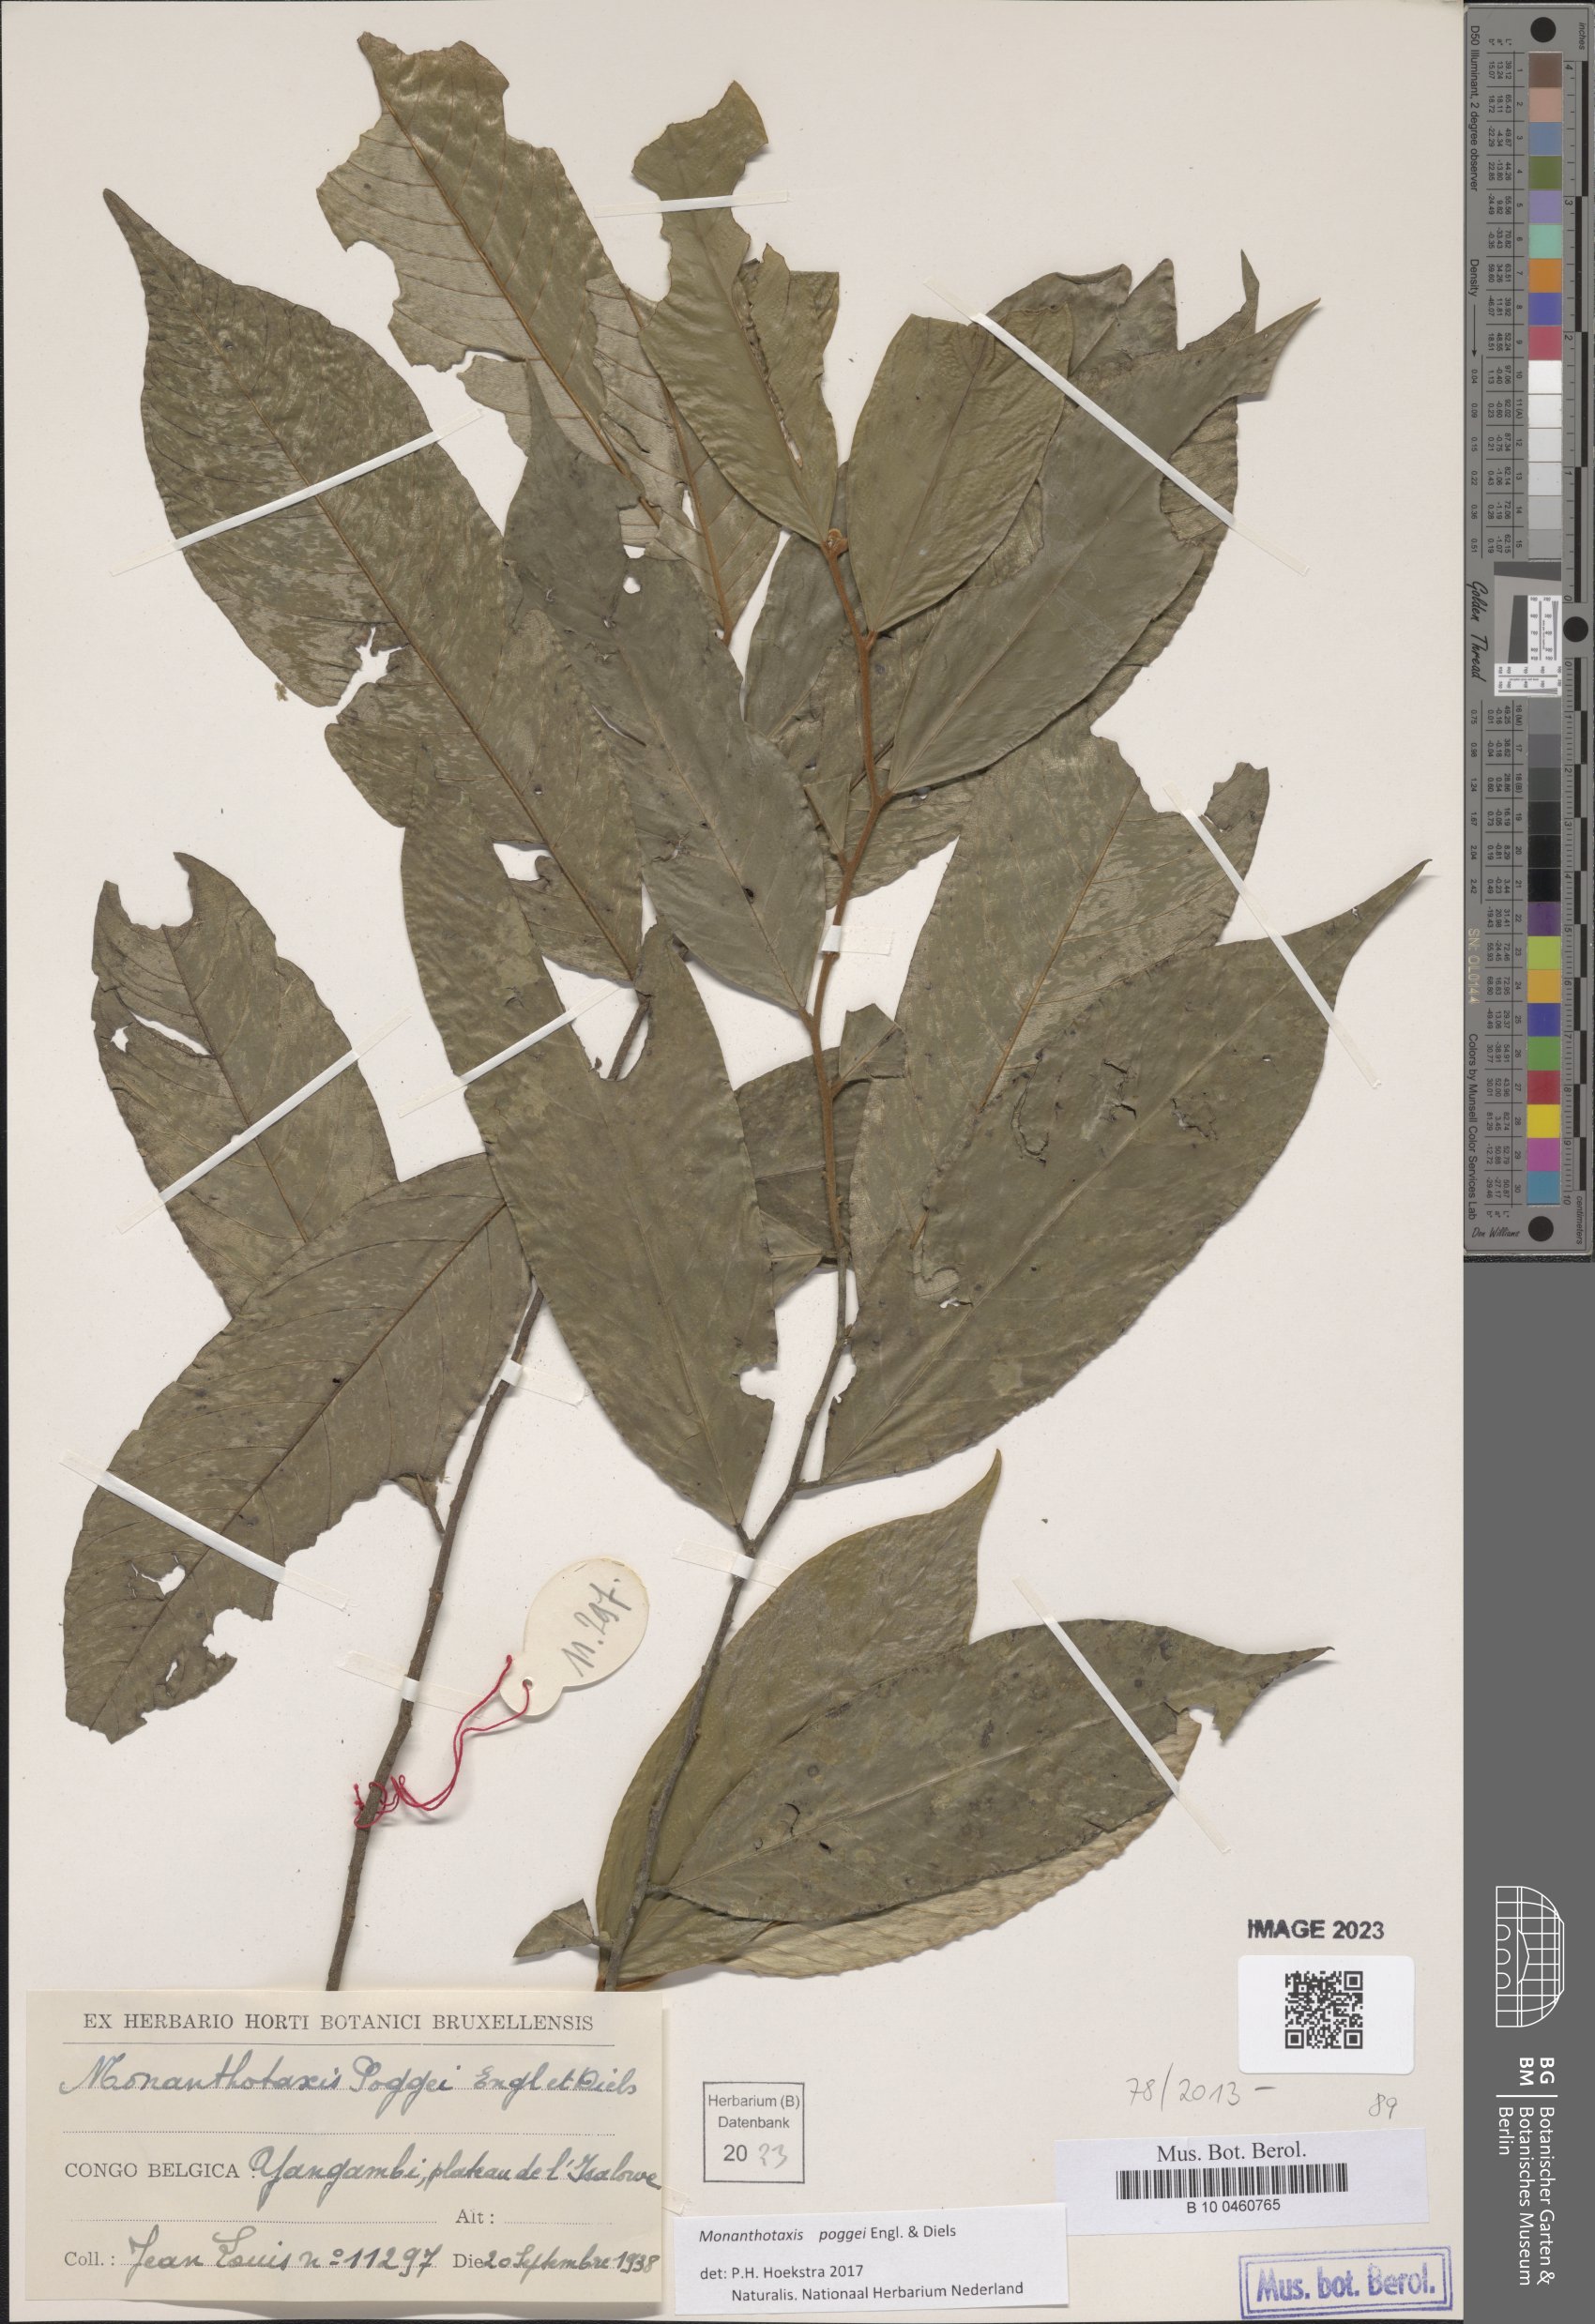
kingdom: Plantae
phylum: Tracheophyta
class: Magnoliopsida
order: Magnoliales
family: Annonaceae
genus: Monanthotaxis
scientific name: Monanthotaxis poggei
